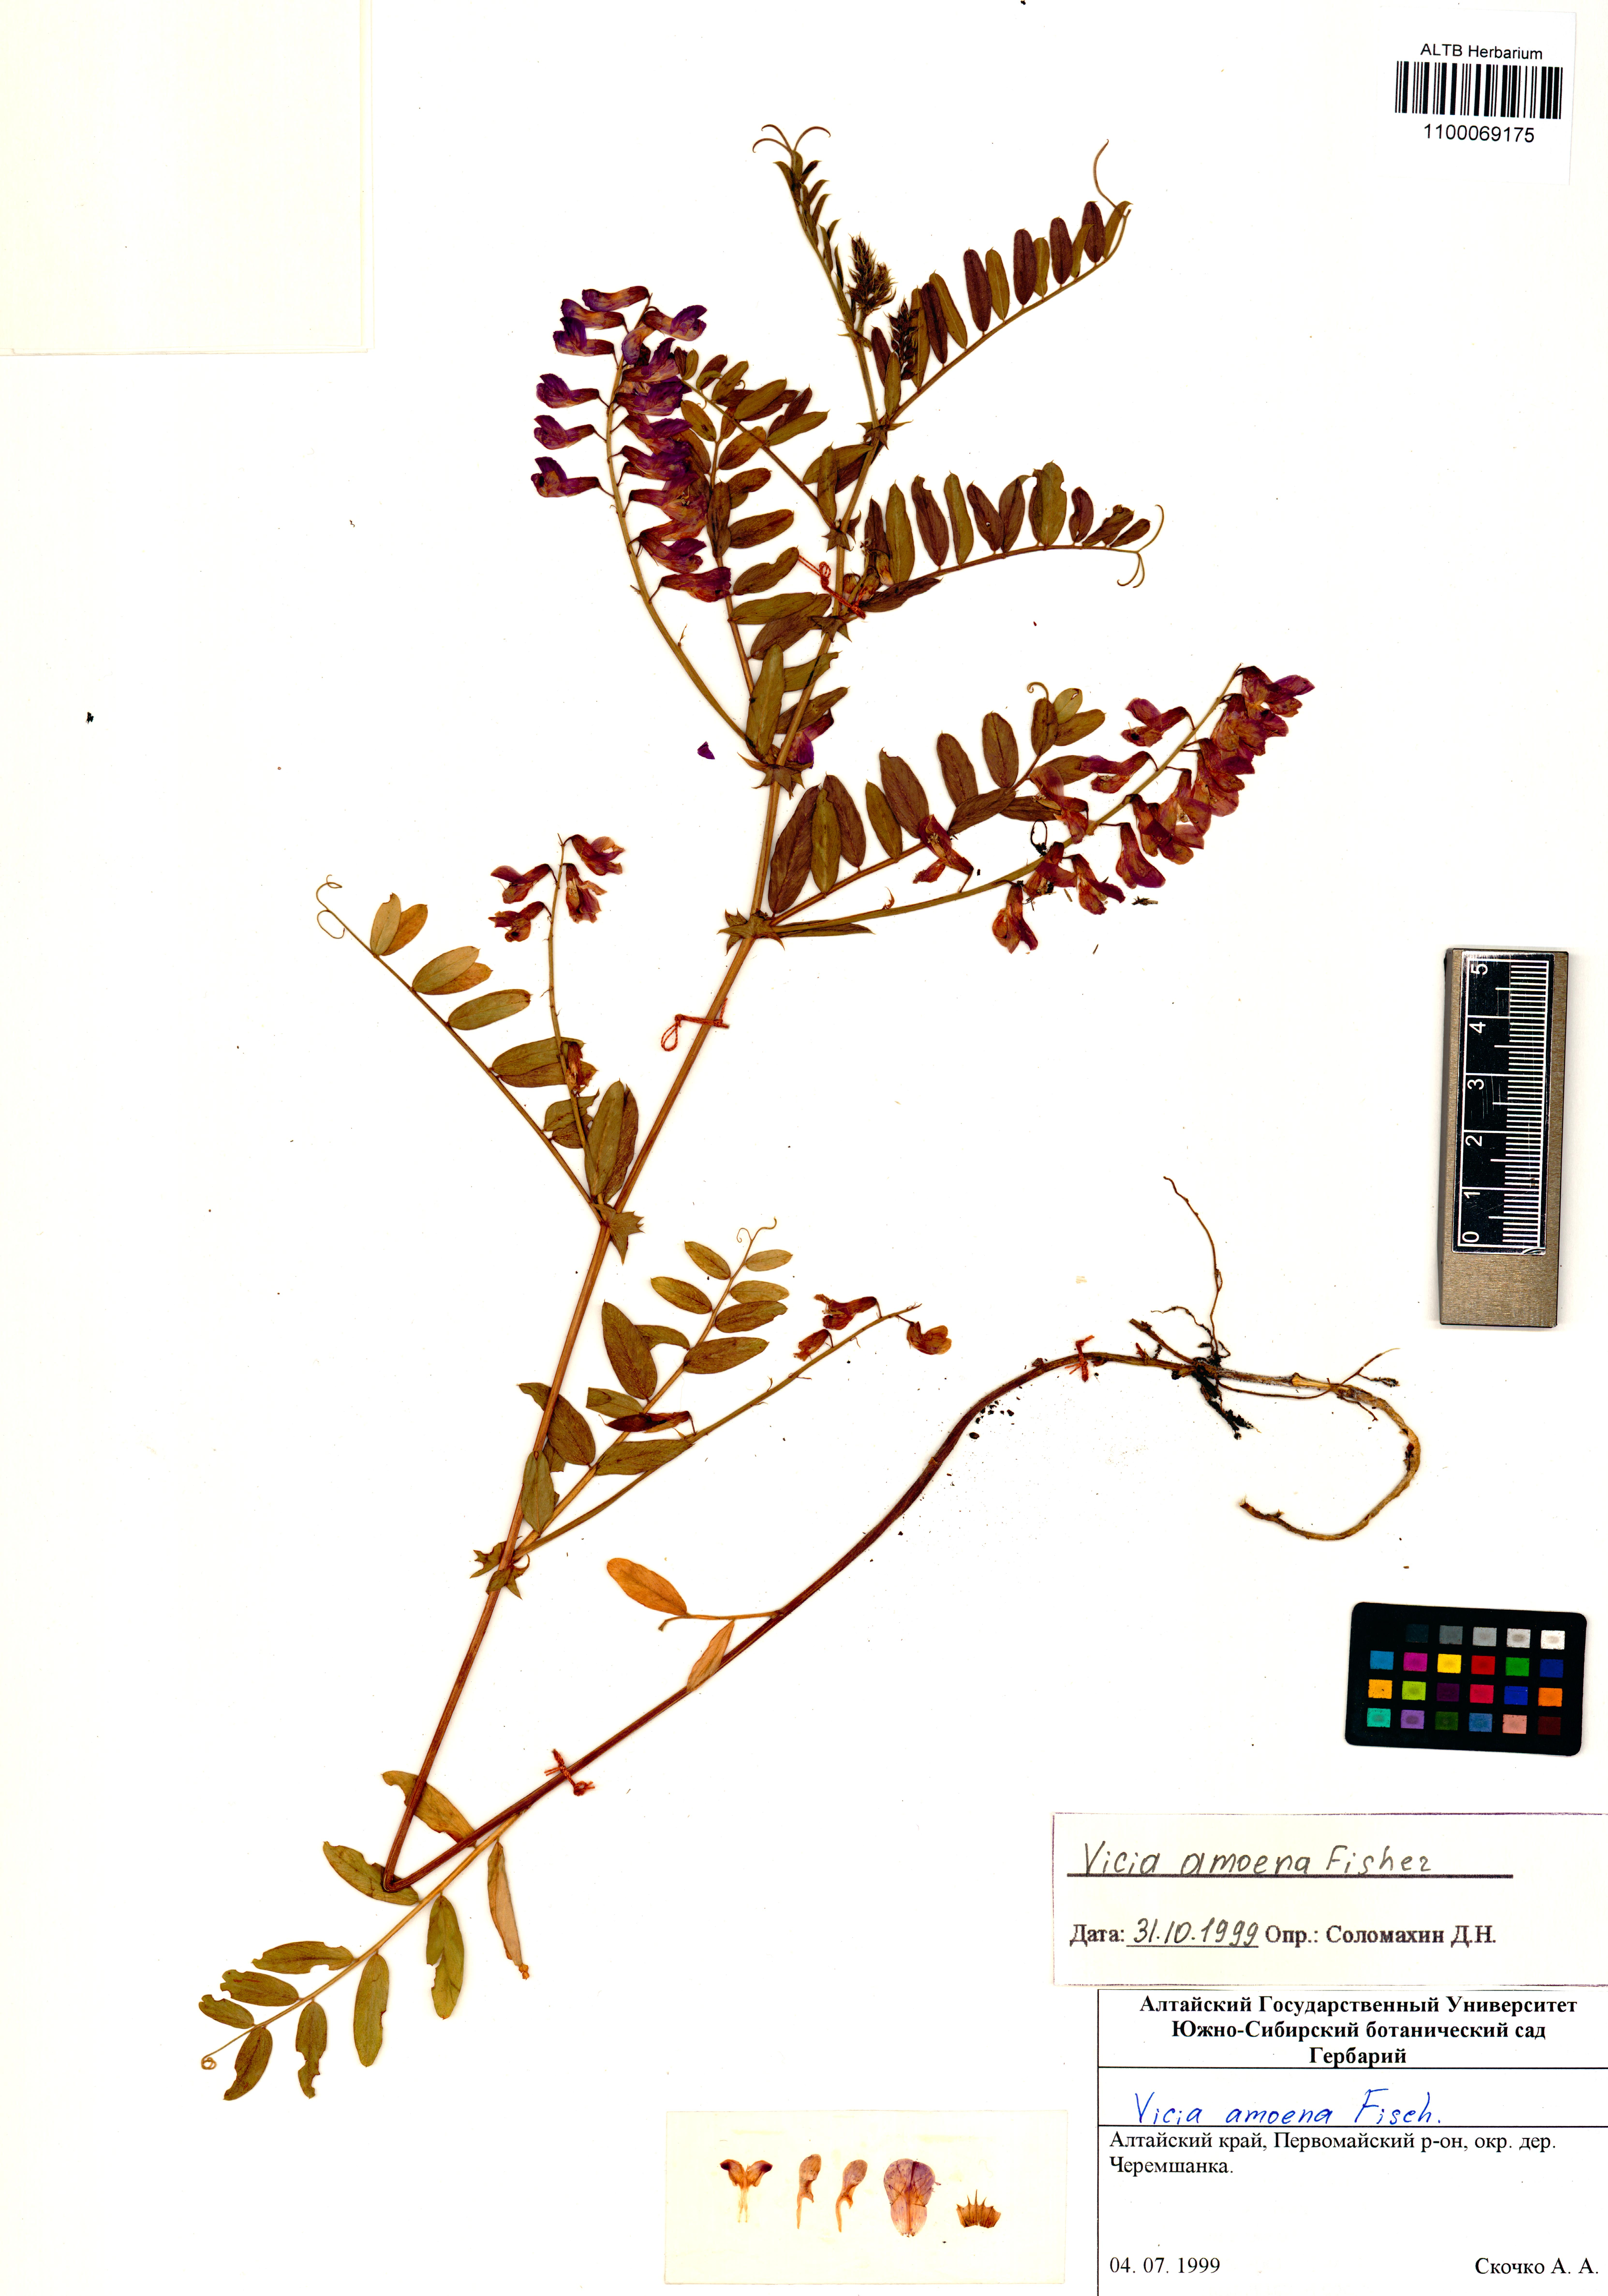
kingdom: Plantae
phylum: Tracheophyta
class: Magnoliopsida
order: Fabales
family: Fabaceae
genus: Vicia
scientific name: Vicia amoena
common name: Cheder ebs
